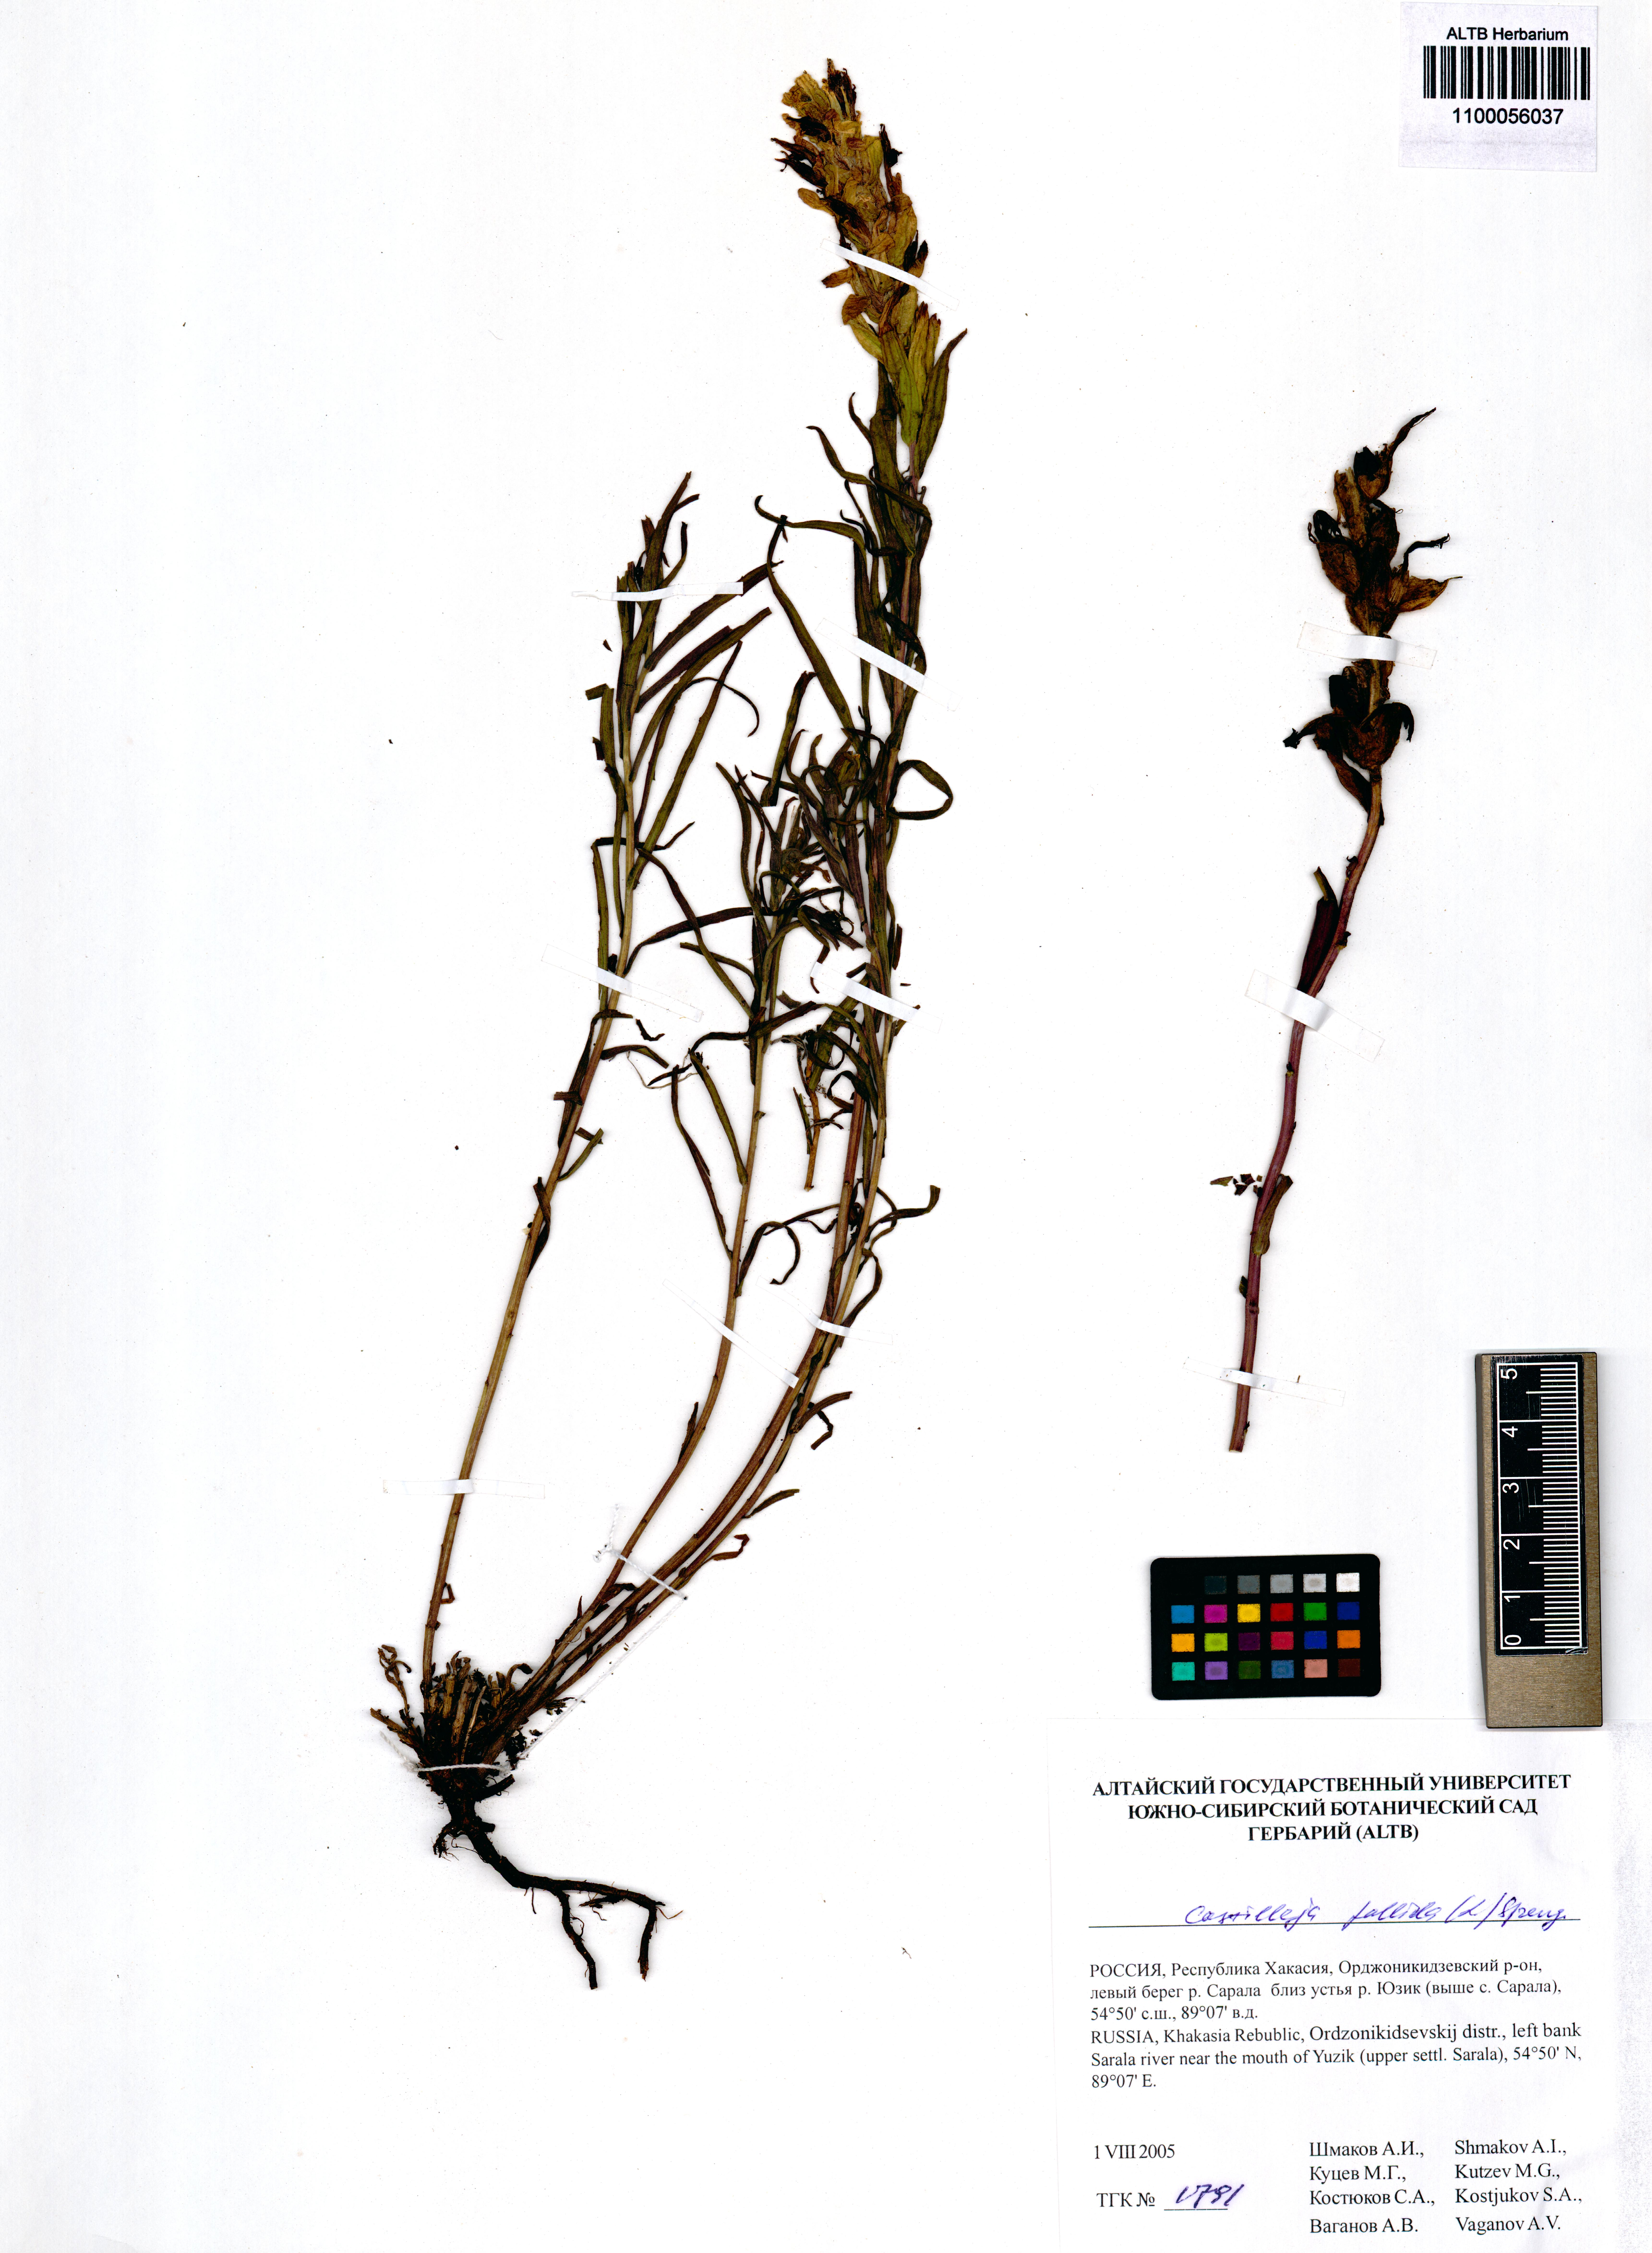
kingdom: Plantae
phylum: Tracheophyta
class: Magnoliopsida
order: Lamiales
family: Orobanchaceae
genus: Castilleja
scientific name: Castilleja pallida
